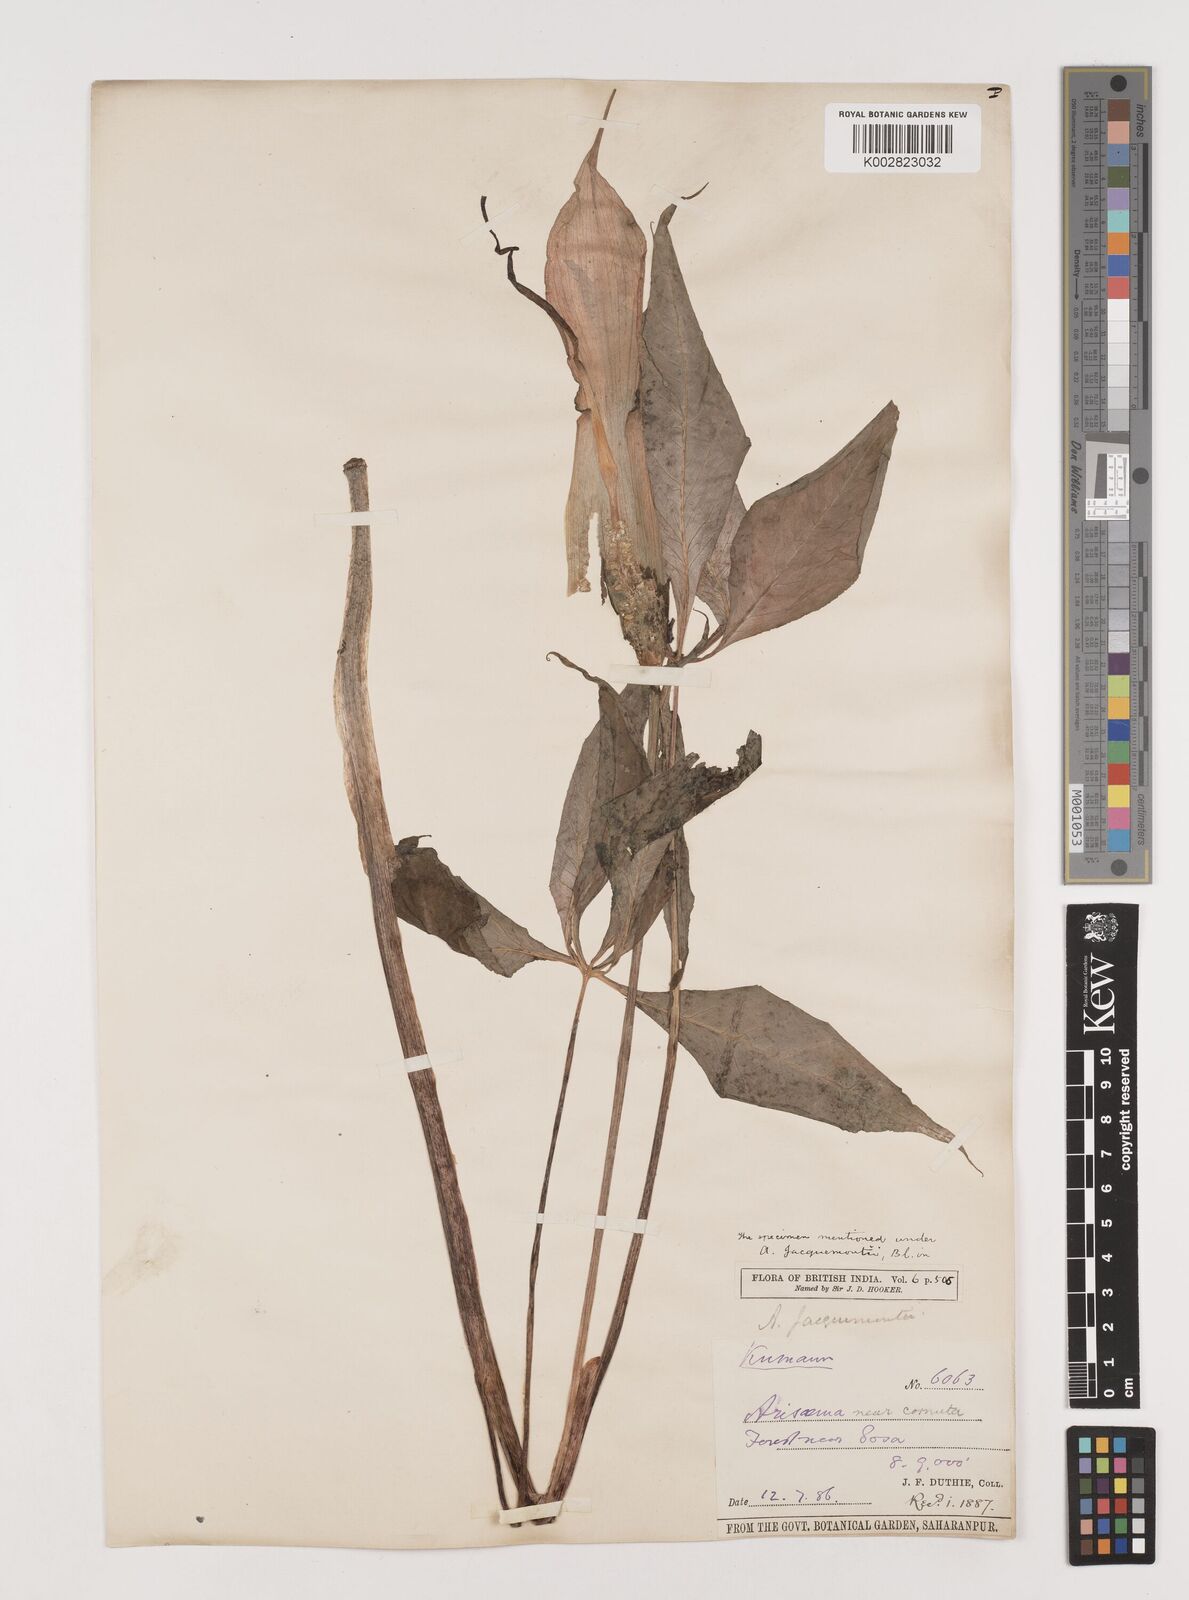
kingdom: Plantae
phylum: Tracheophyta
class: Liliopsida
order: Alismatales
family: Araceae
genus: Arisaema
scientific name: Arisaema jacquemontii
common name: Jacquemont's cobra-lily
